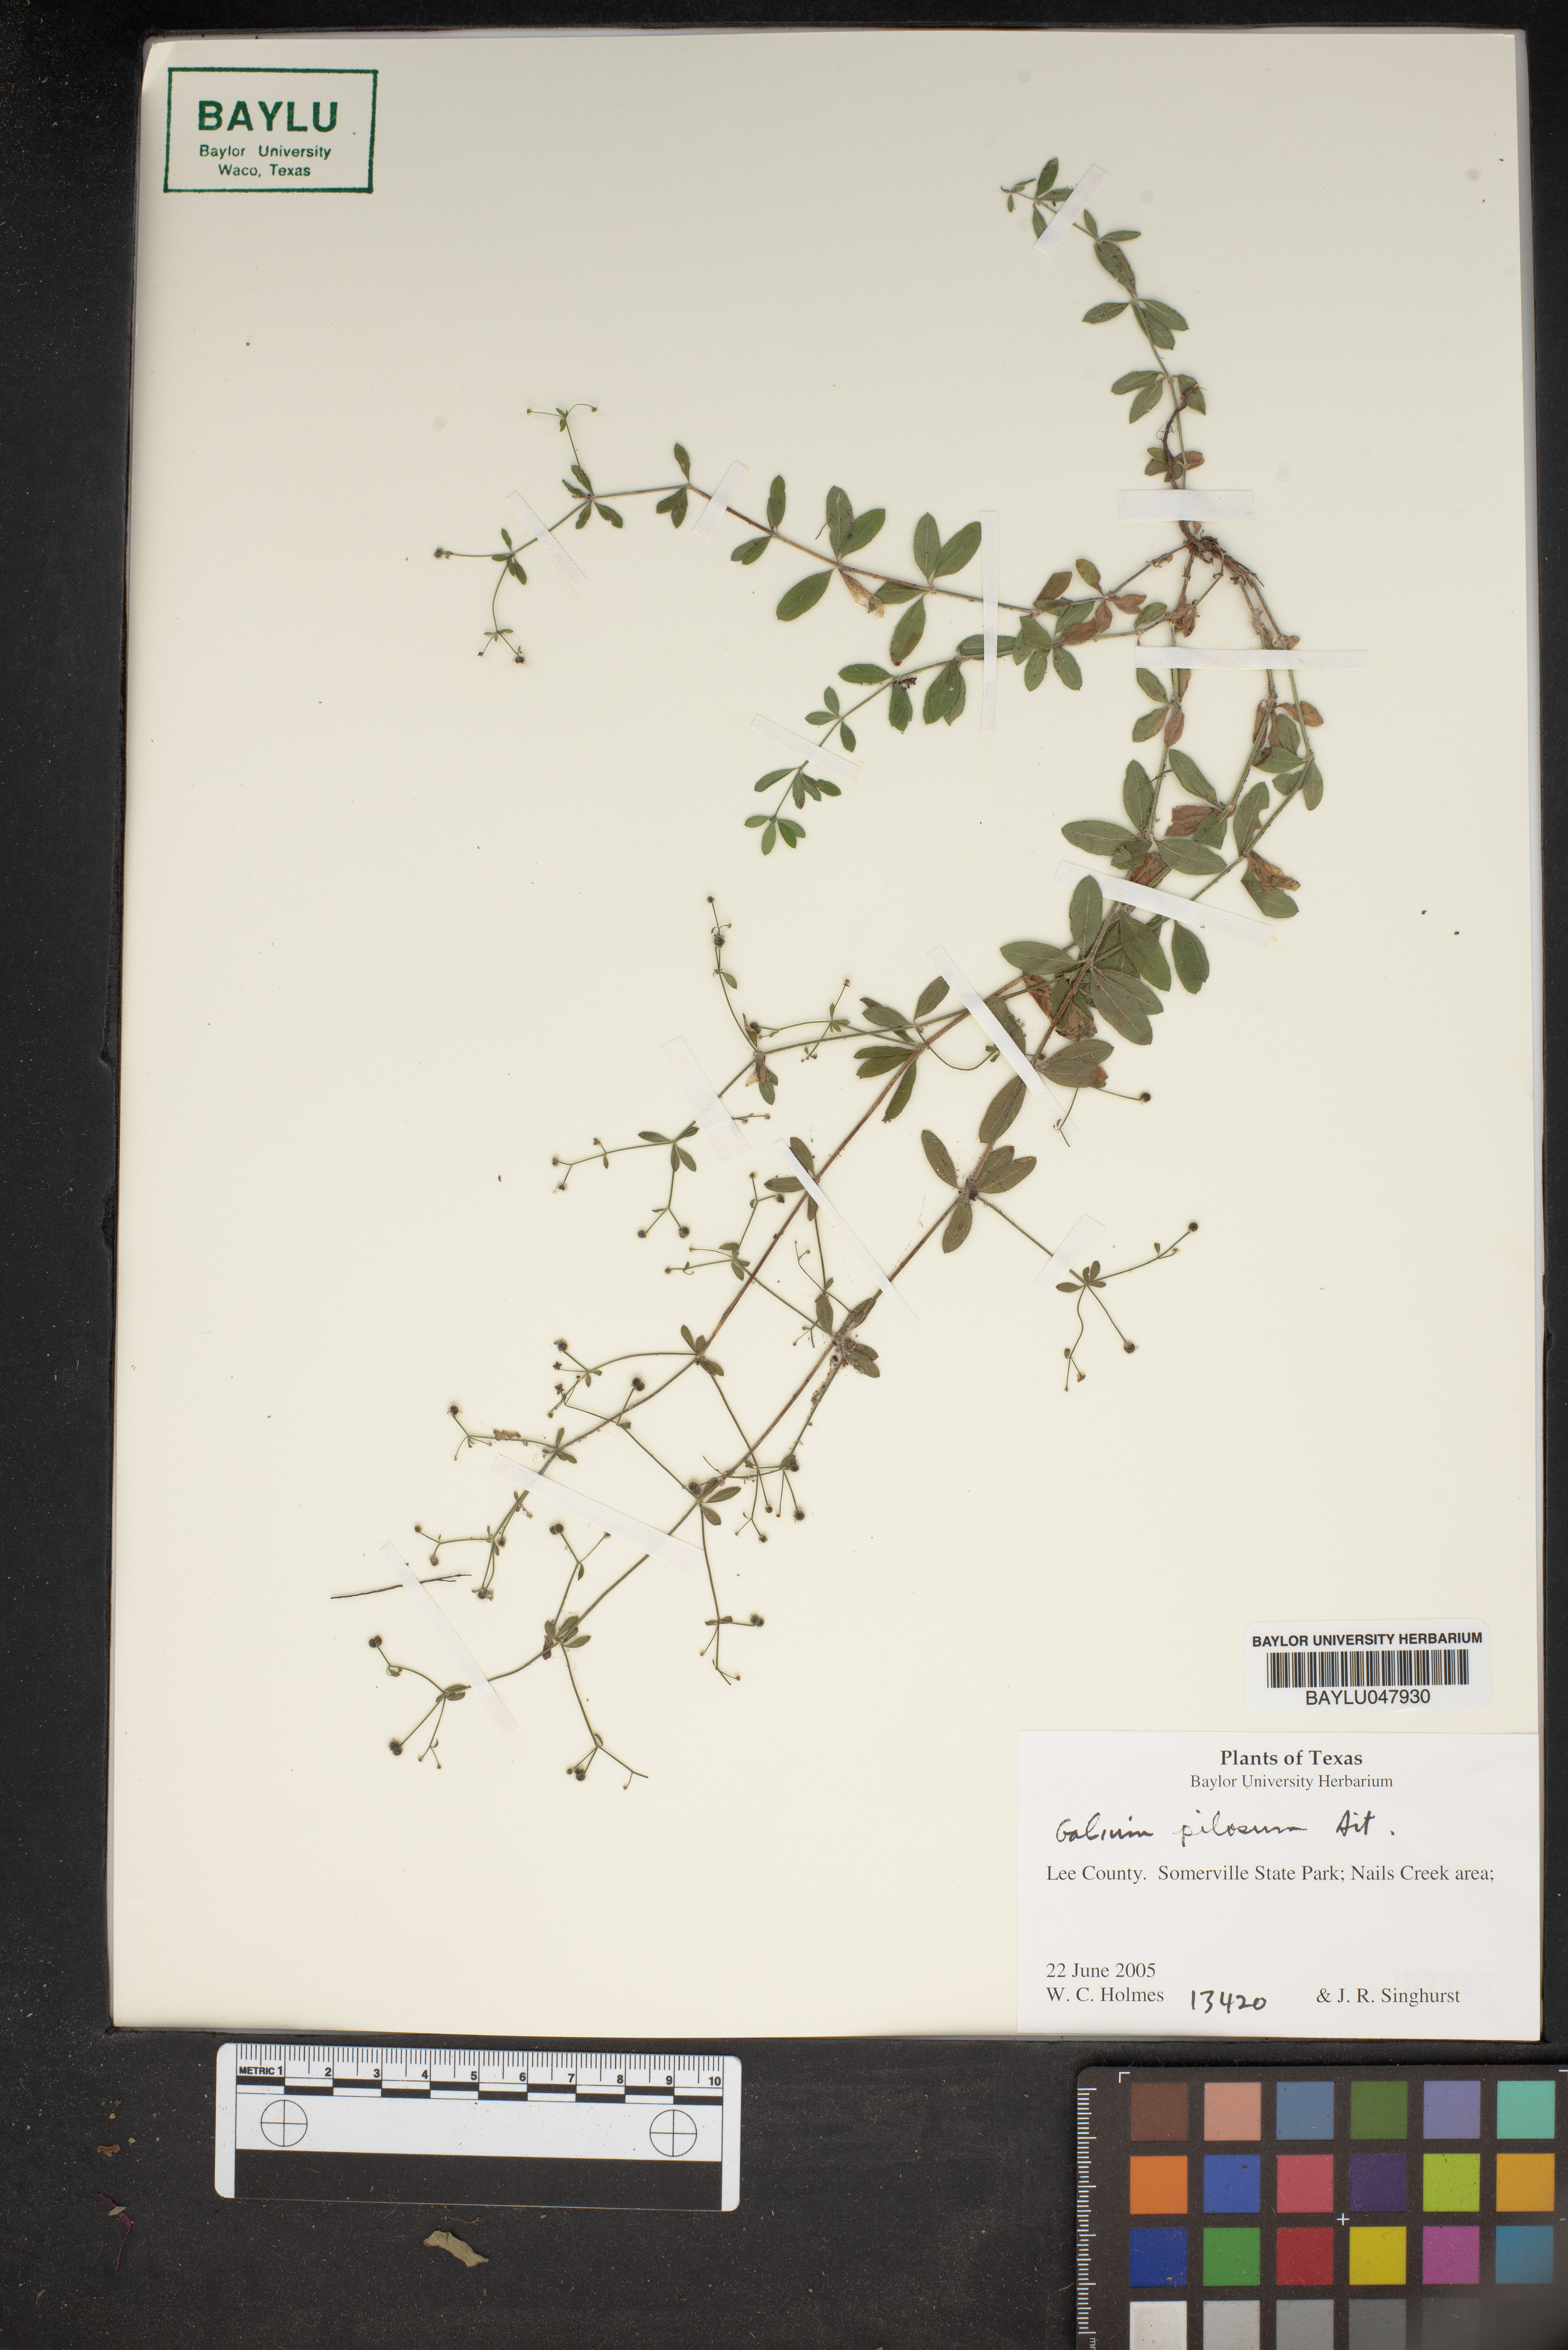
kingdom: Plantae
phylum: Tracheophyta
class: Magnoliopsida
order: Gentianales
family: Rubiaceae
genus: Galium
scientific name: Galium pilosum
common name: Hairy bedstraw
